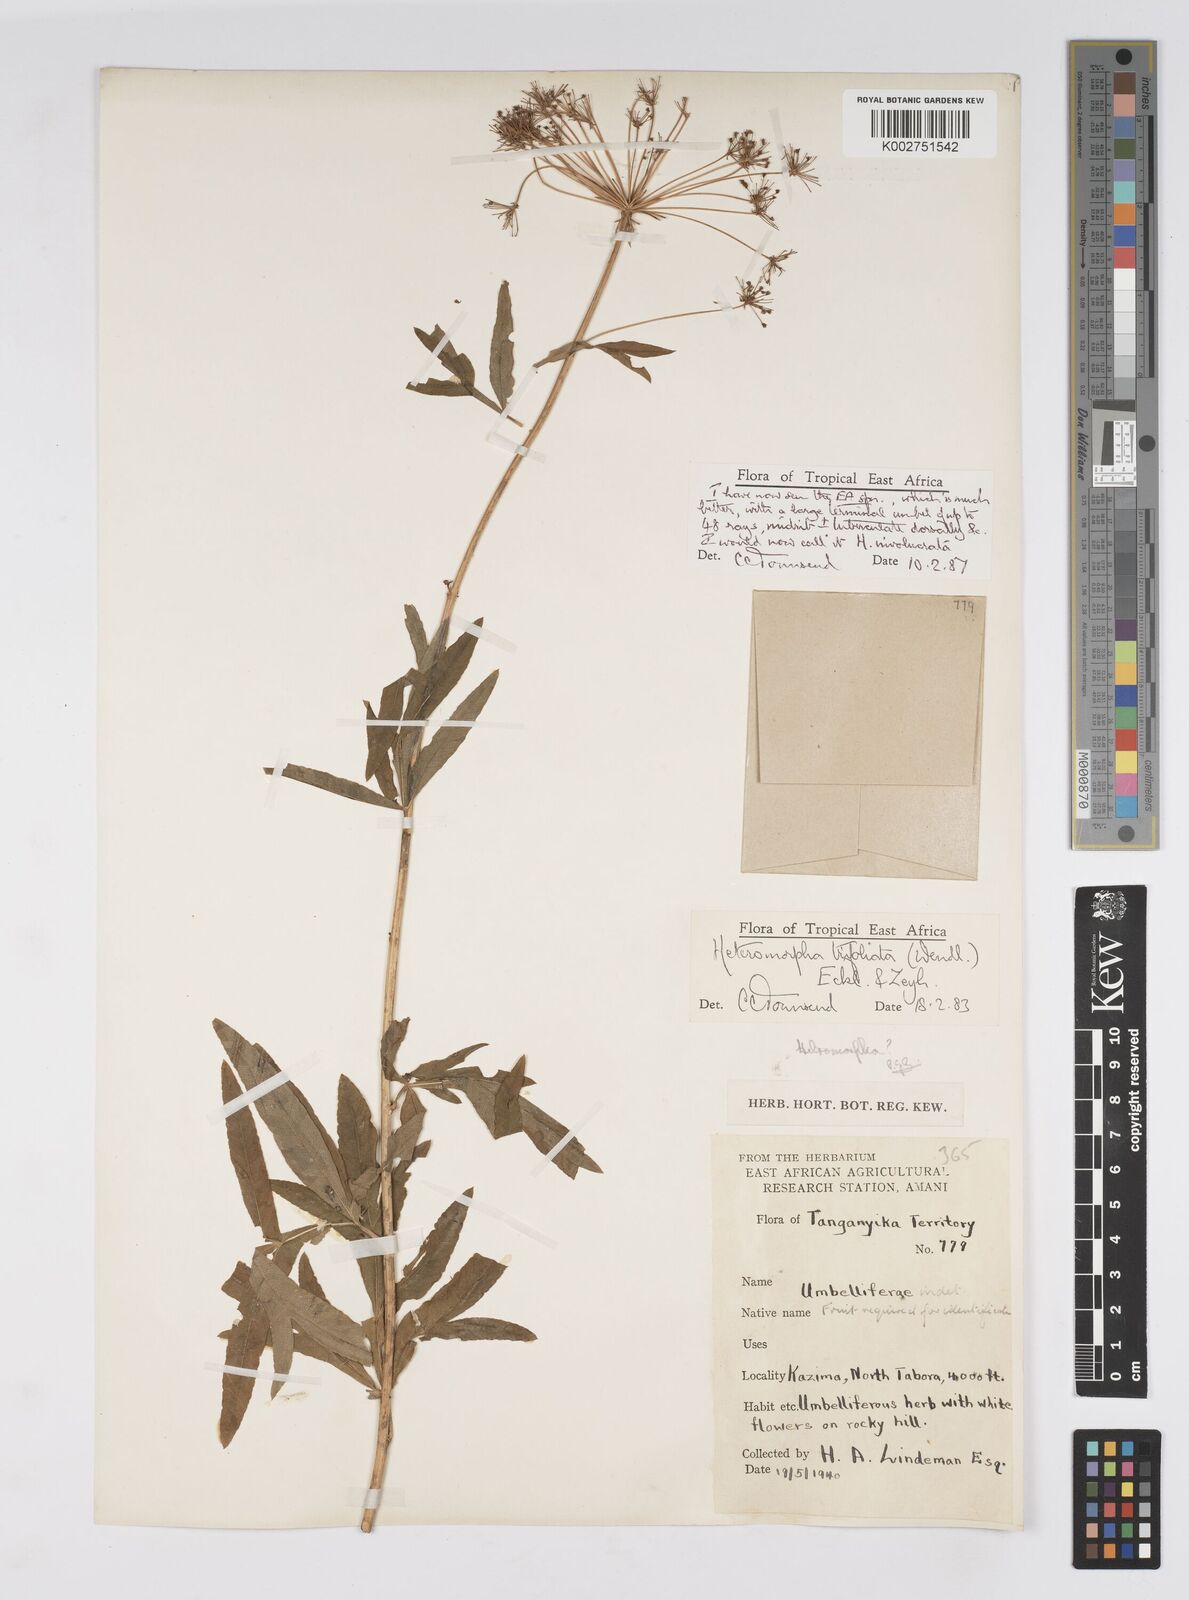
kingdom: Plantae
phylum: Tracheophyta
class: Magnoliopsida
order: Apiales
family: Apiaceae
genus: Heteromorpha
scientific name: Heteromorpha involucrata
